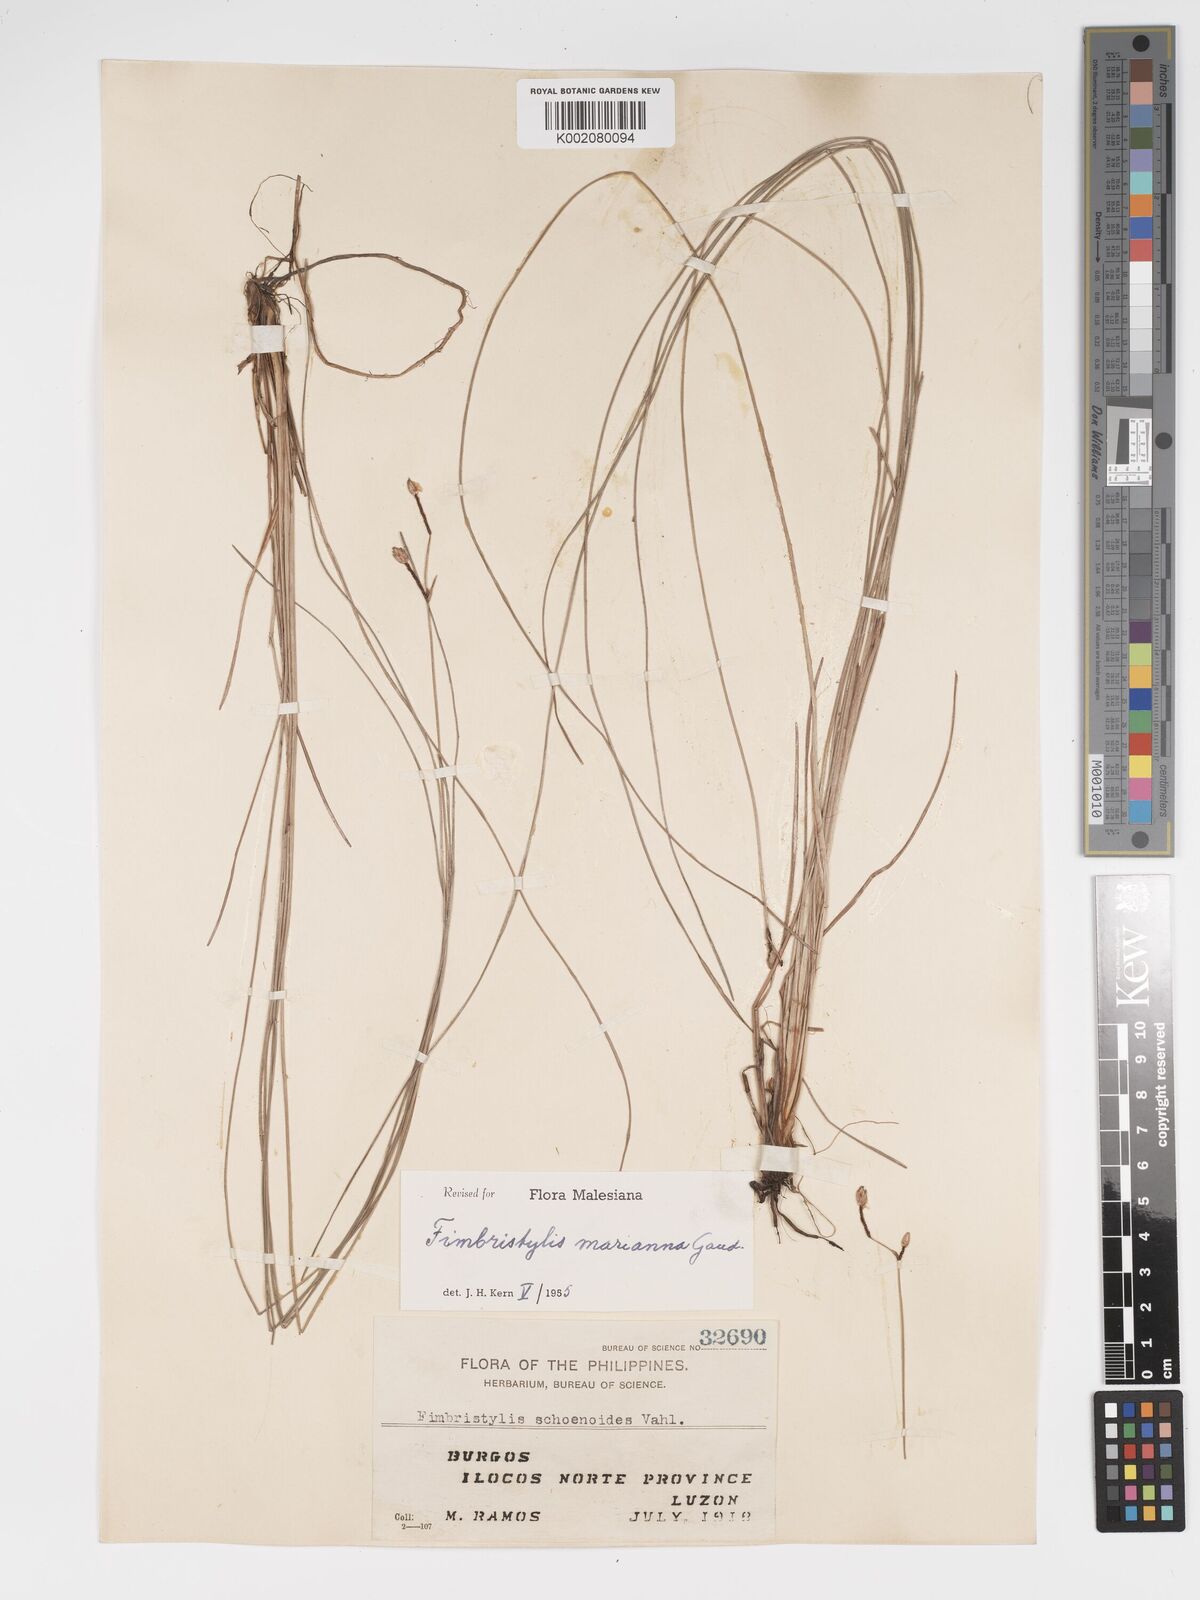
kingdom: Plantae
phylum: Tracheophyta
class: Liliopsida
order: Poales
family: Cyperaceae
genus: Fimbristylis
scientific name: Fimbristylis tristachya
